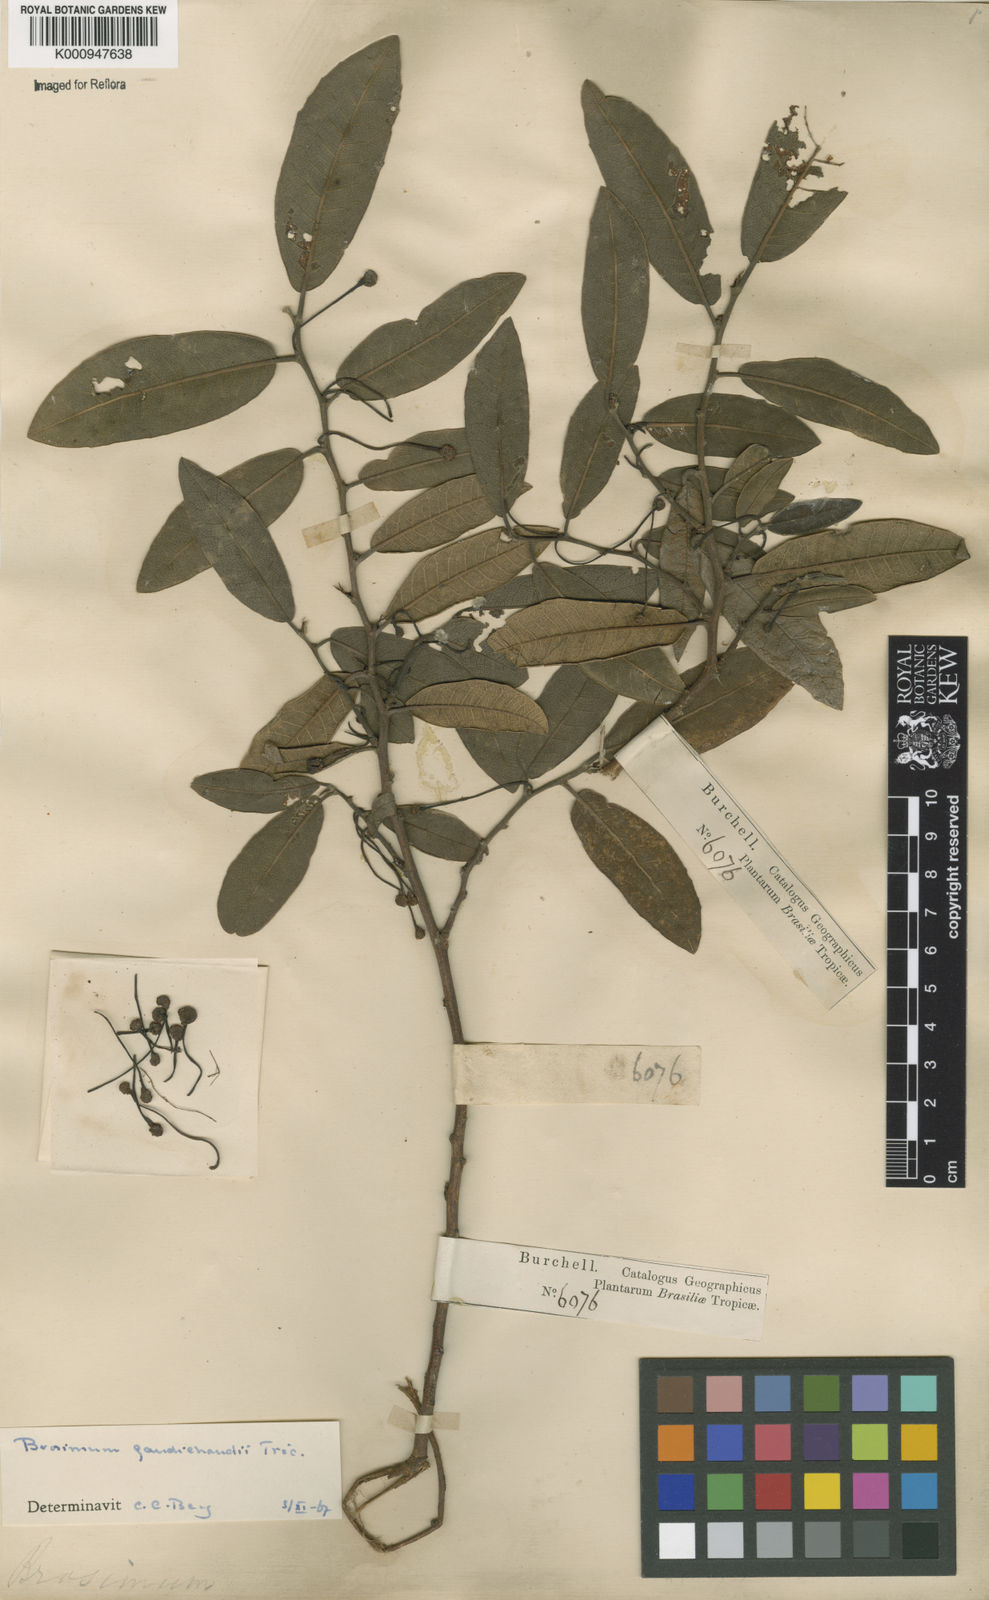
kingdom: Plantae
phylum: Tracheophyta
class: Magnoliopsida
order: Rosales
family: Moraceae
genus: Brosimum
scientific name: Brosimum
